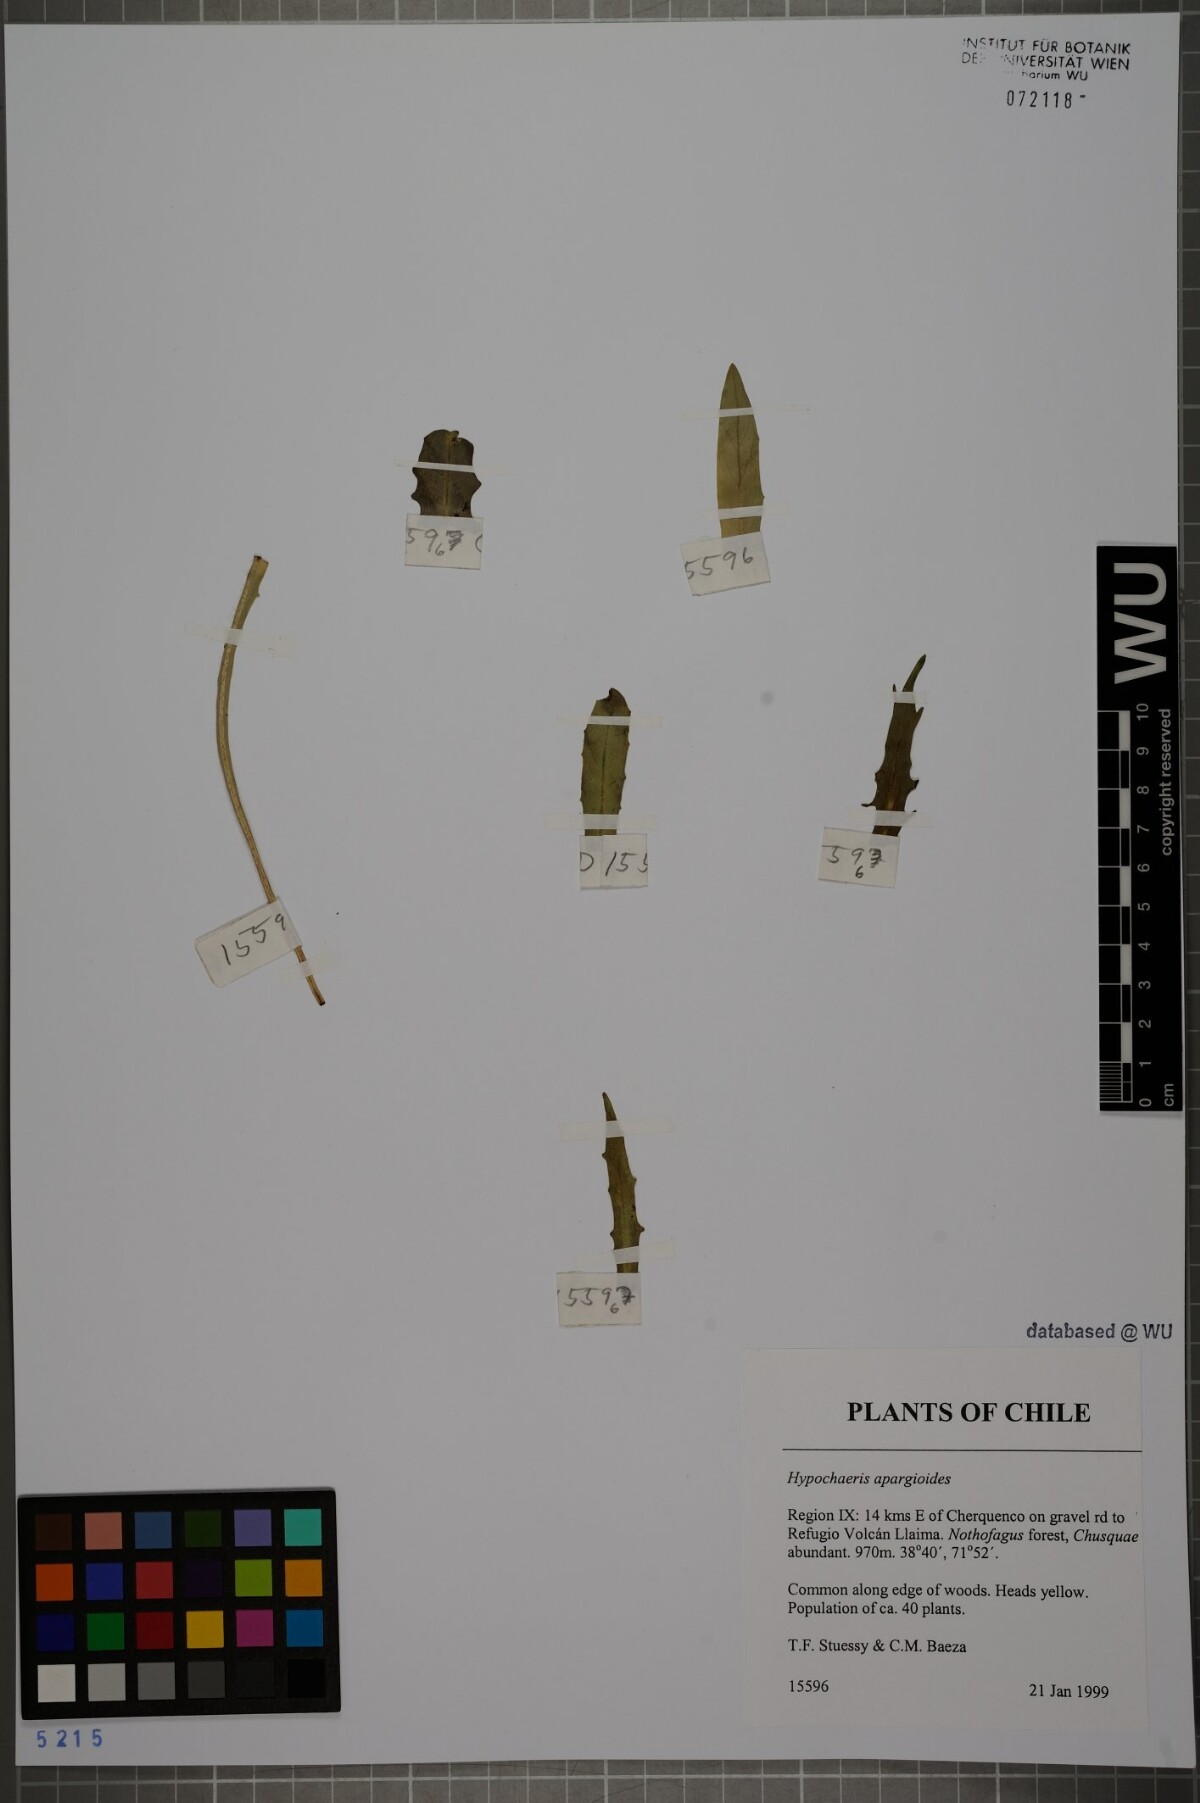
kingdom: Plantae
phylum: Tracheophyta
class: Magnoliopsida
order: Asterales
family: Asteraceae
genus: Hypochaeris
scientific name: Hypochaeris apargioides
